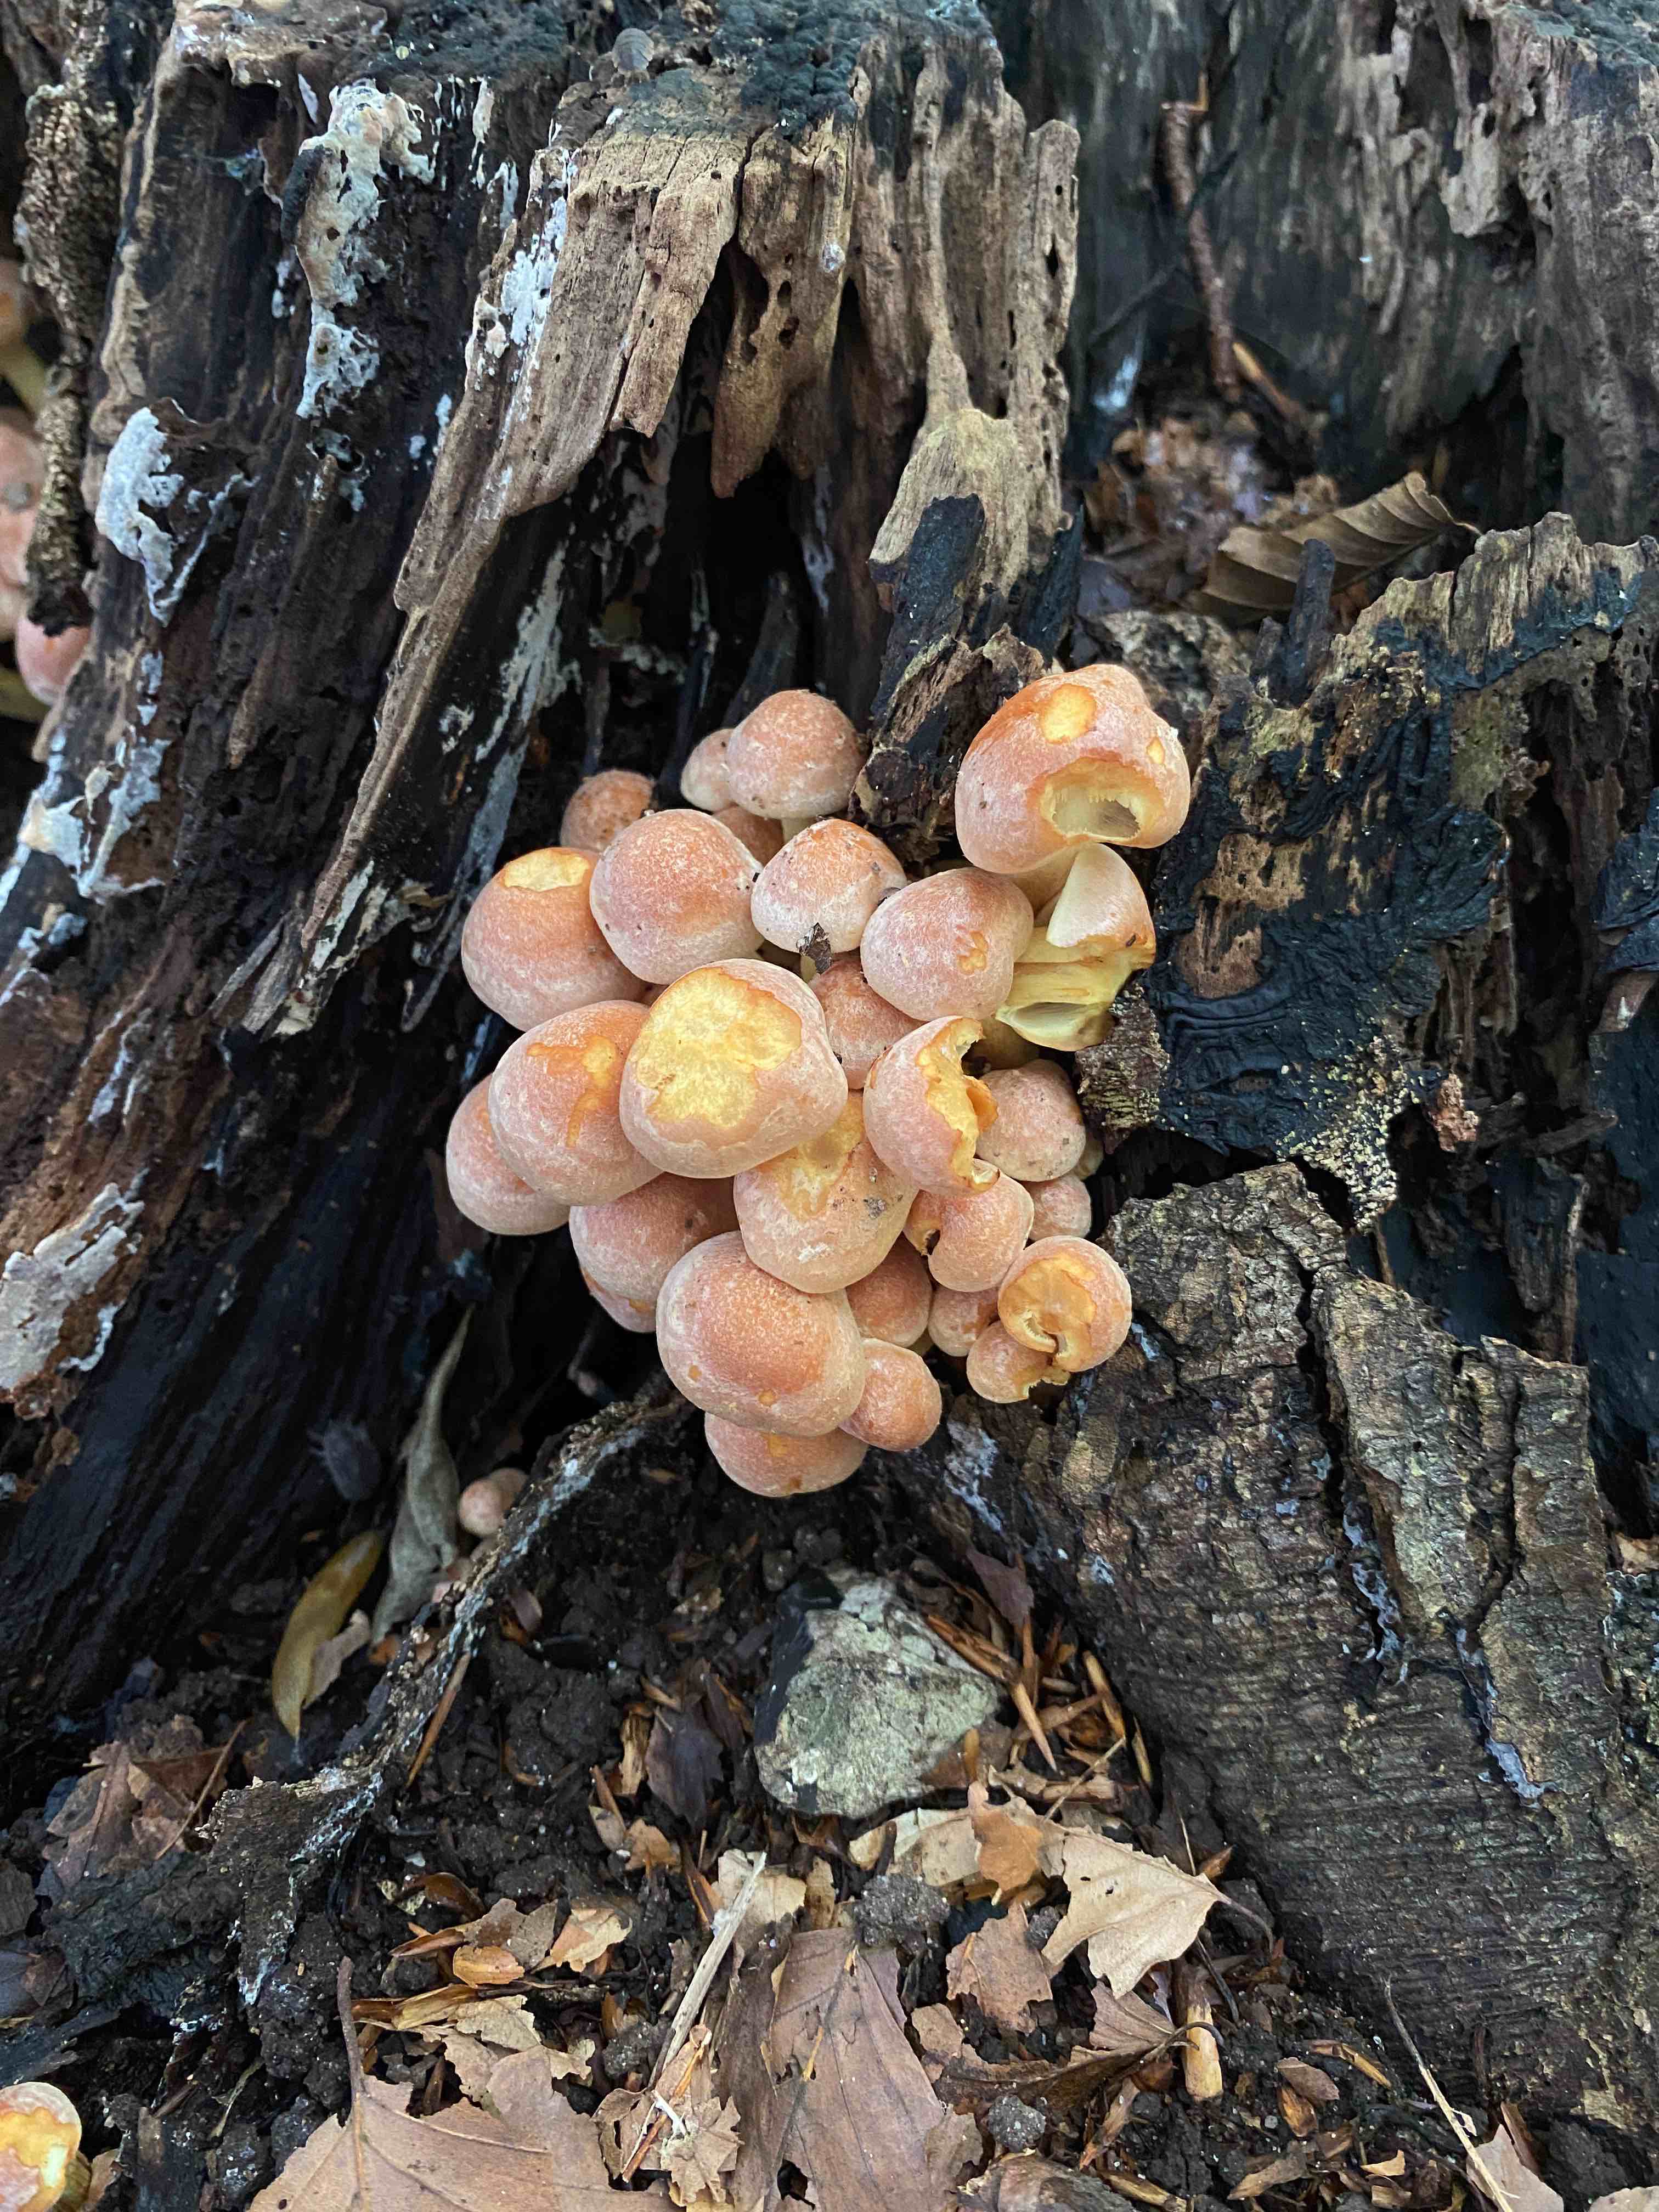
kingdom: Fungi
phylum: Basidiomycota
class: Agaricomycetes
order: Agaricales
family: Strophariaceae
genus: Hypholoma
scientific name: Hypholoma fasciculare
